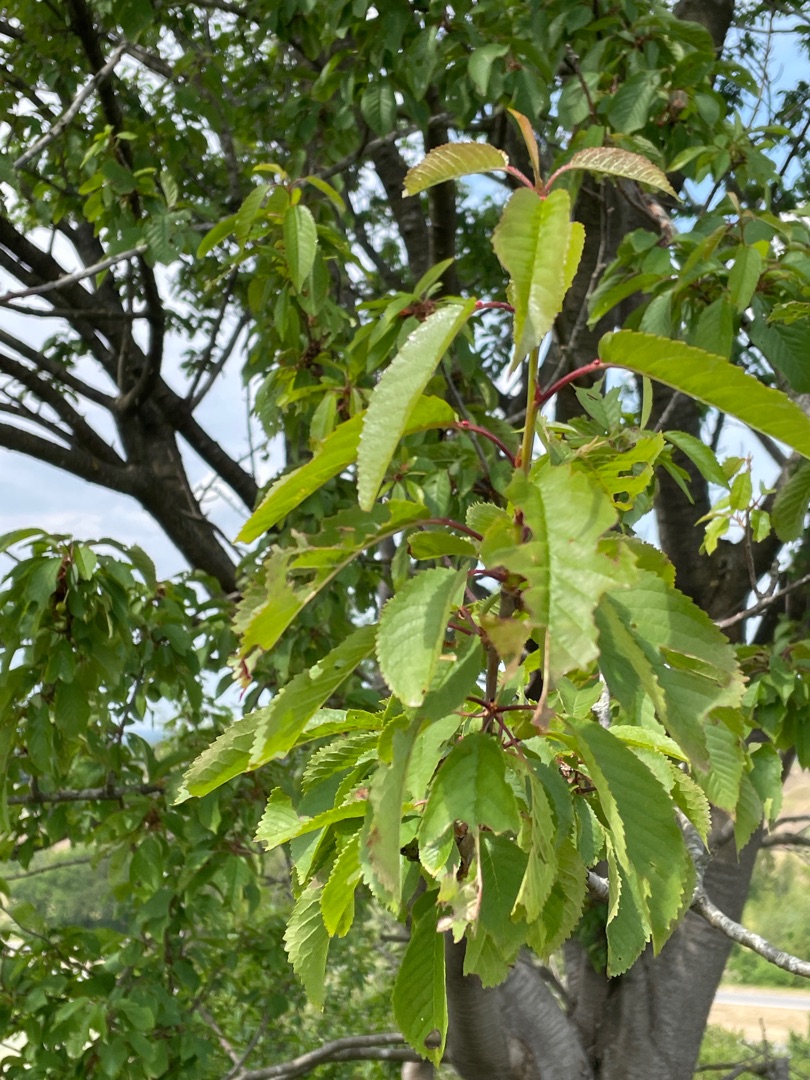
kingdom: Plantae
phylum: Tracheophyta
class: Magnoliopsida
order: Rosales
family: Rosaceae
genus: Prunus
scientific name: Prunus avium
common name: Fugle-kirsebær
